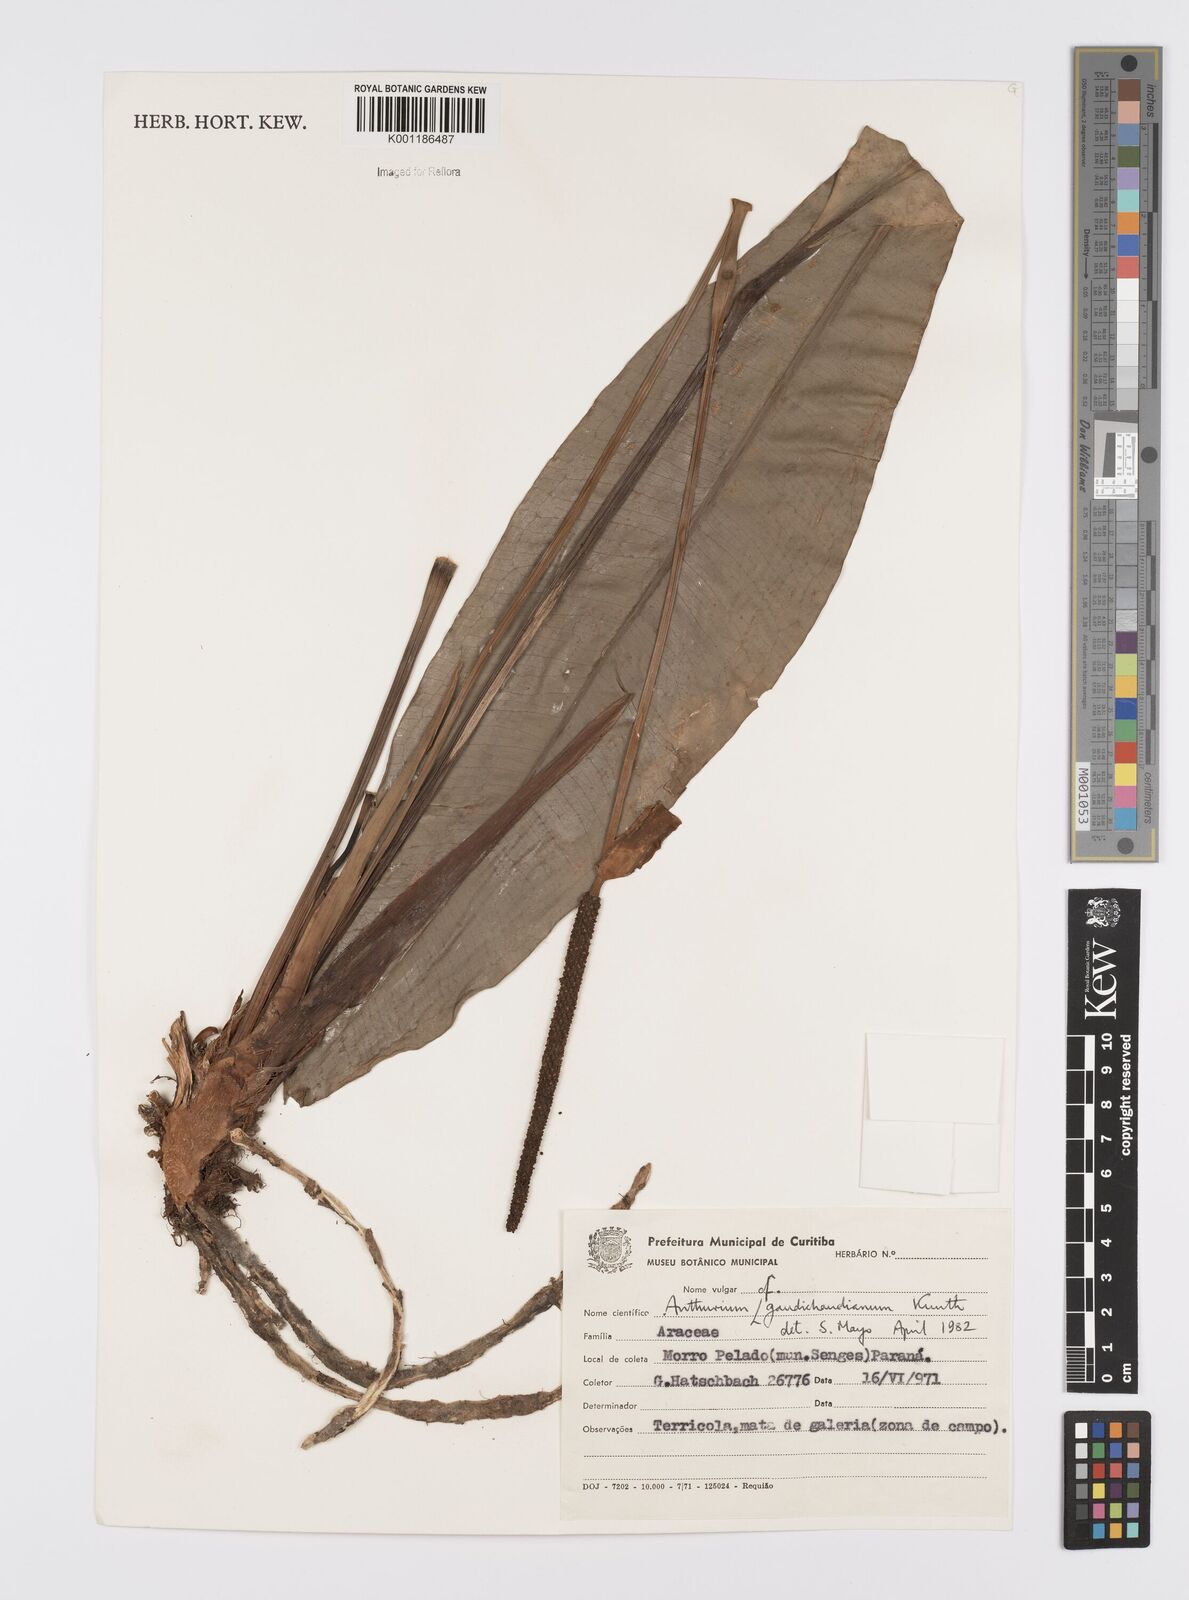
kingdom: Plantae
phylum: Tracheophyta
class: Liliopsida
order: Alismatales
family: Araceae
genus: Anthurium
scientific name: Anthurium gaudichaudianum
